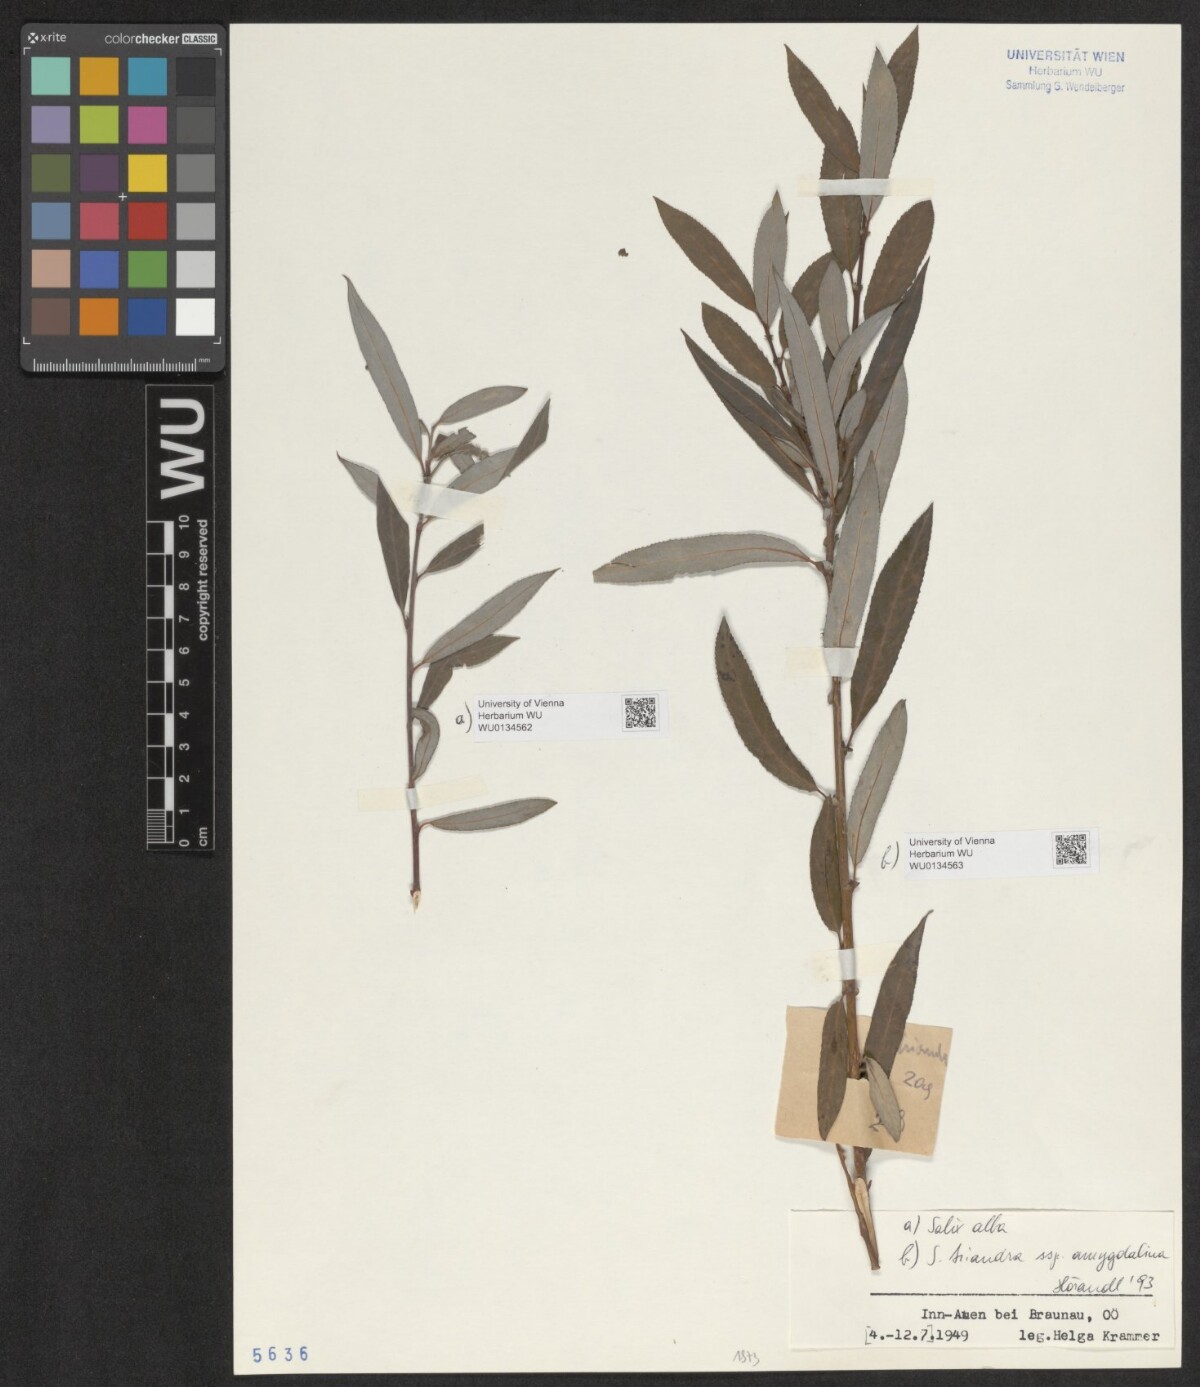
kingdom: Plantae
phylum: Tracheophyta
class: Magnoliopsida
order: Malpighiales
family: Salicaceae
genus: Salix
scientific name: Salix alba
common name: White willow
